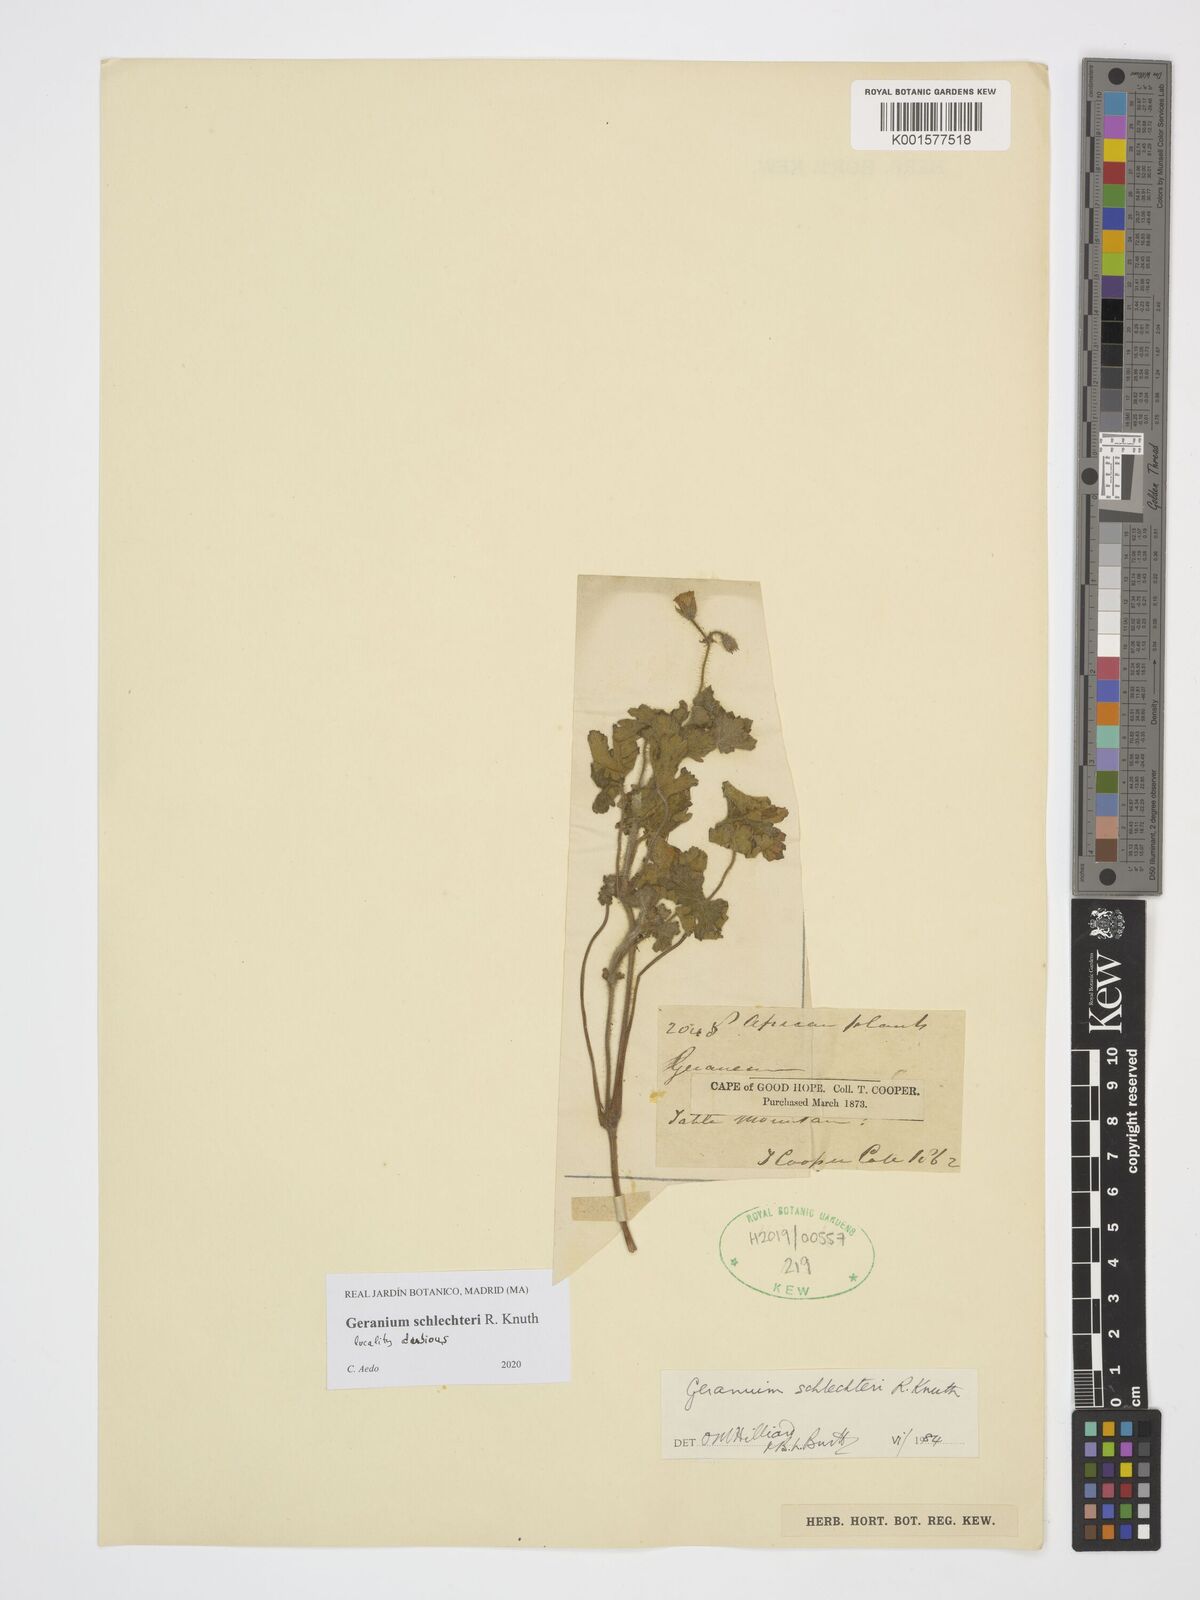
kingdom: Plantae
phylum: Tracheophyta
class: Magnoliopsida
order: Geraniales
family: Geraniaceae
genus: Geranium
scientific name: Geranium schlechteri
